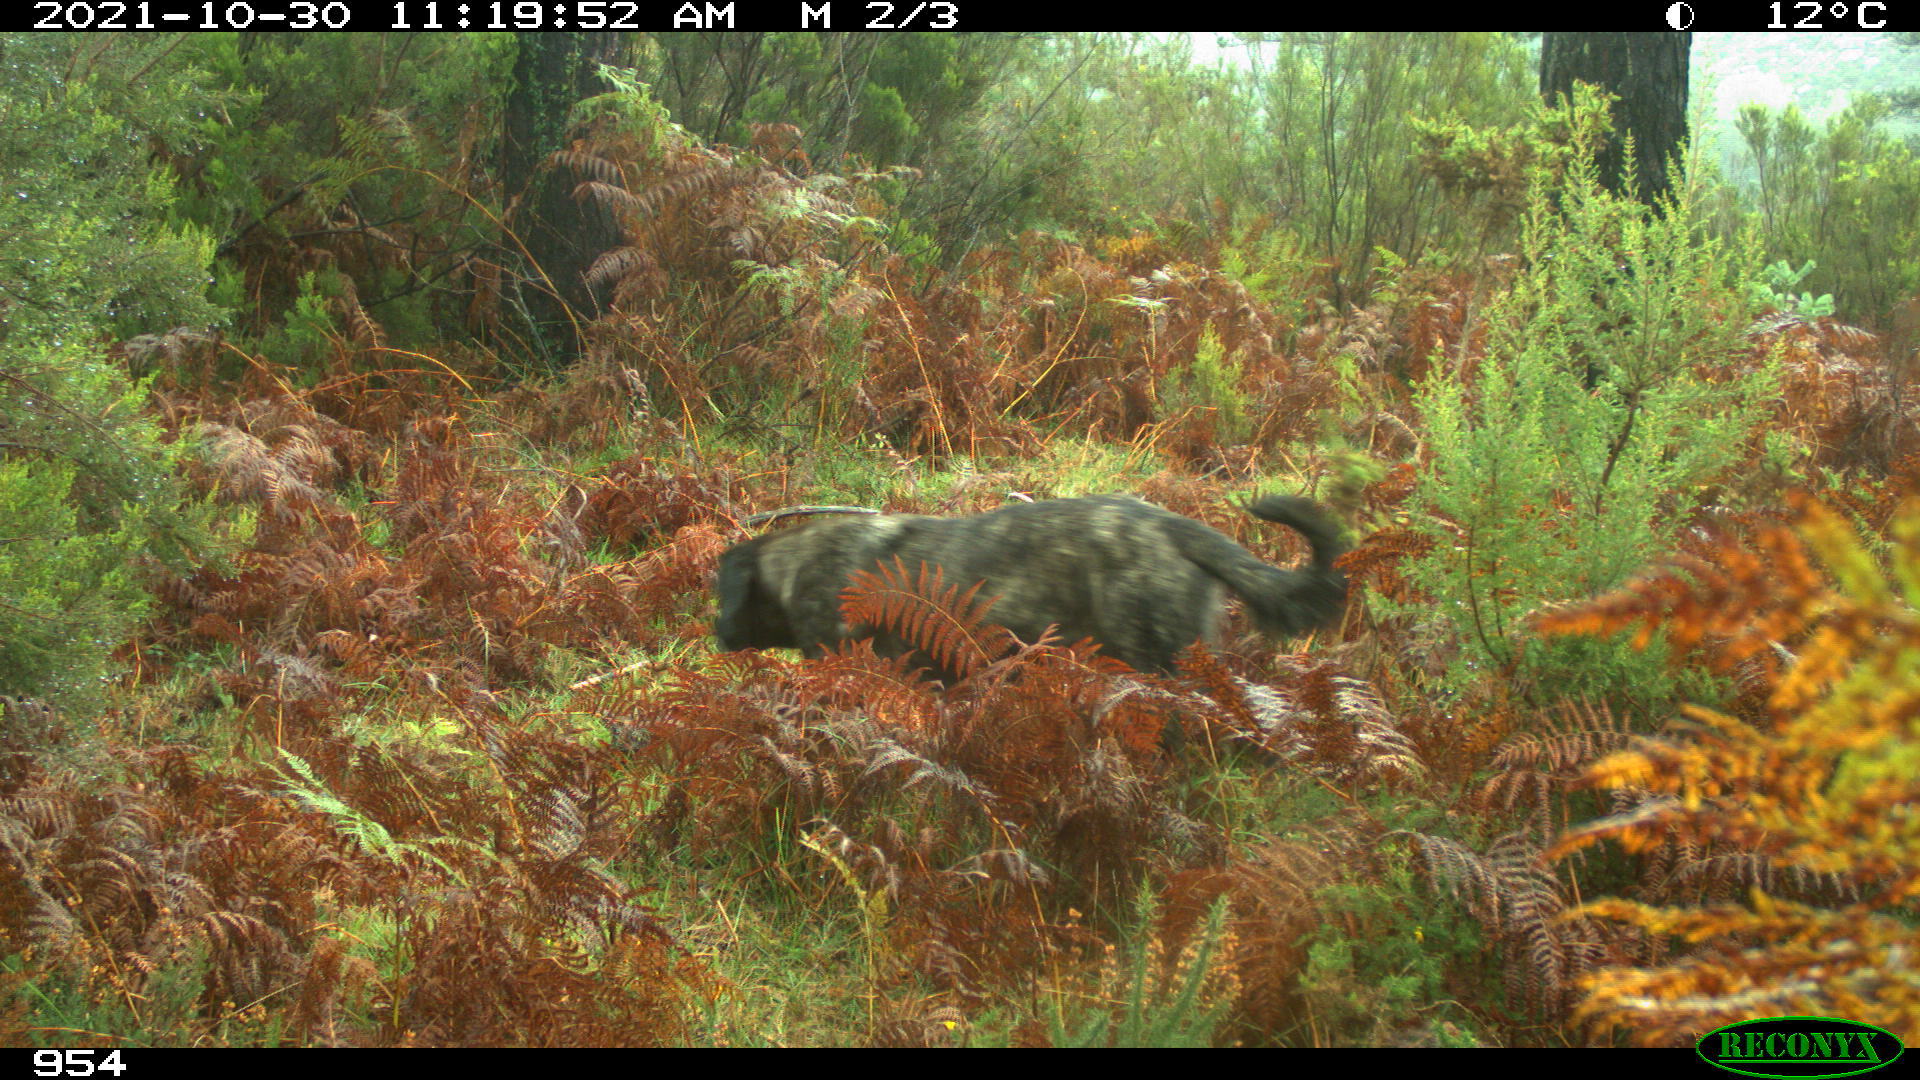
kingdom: Animalia
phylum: Chordata
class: Mammalia
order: Carnivora
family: Canidae
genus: Canis
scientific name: Canis lupus
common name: Gray wolf
